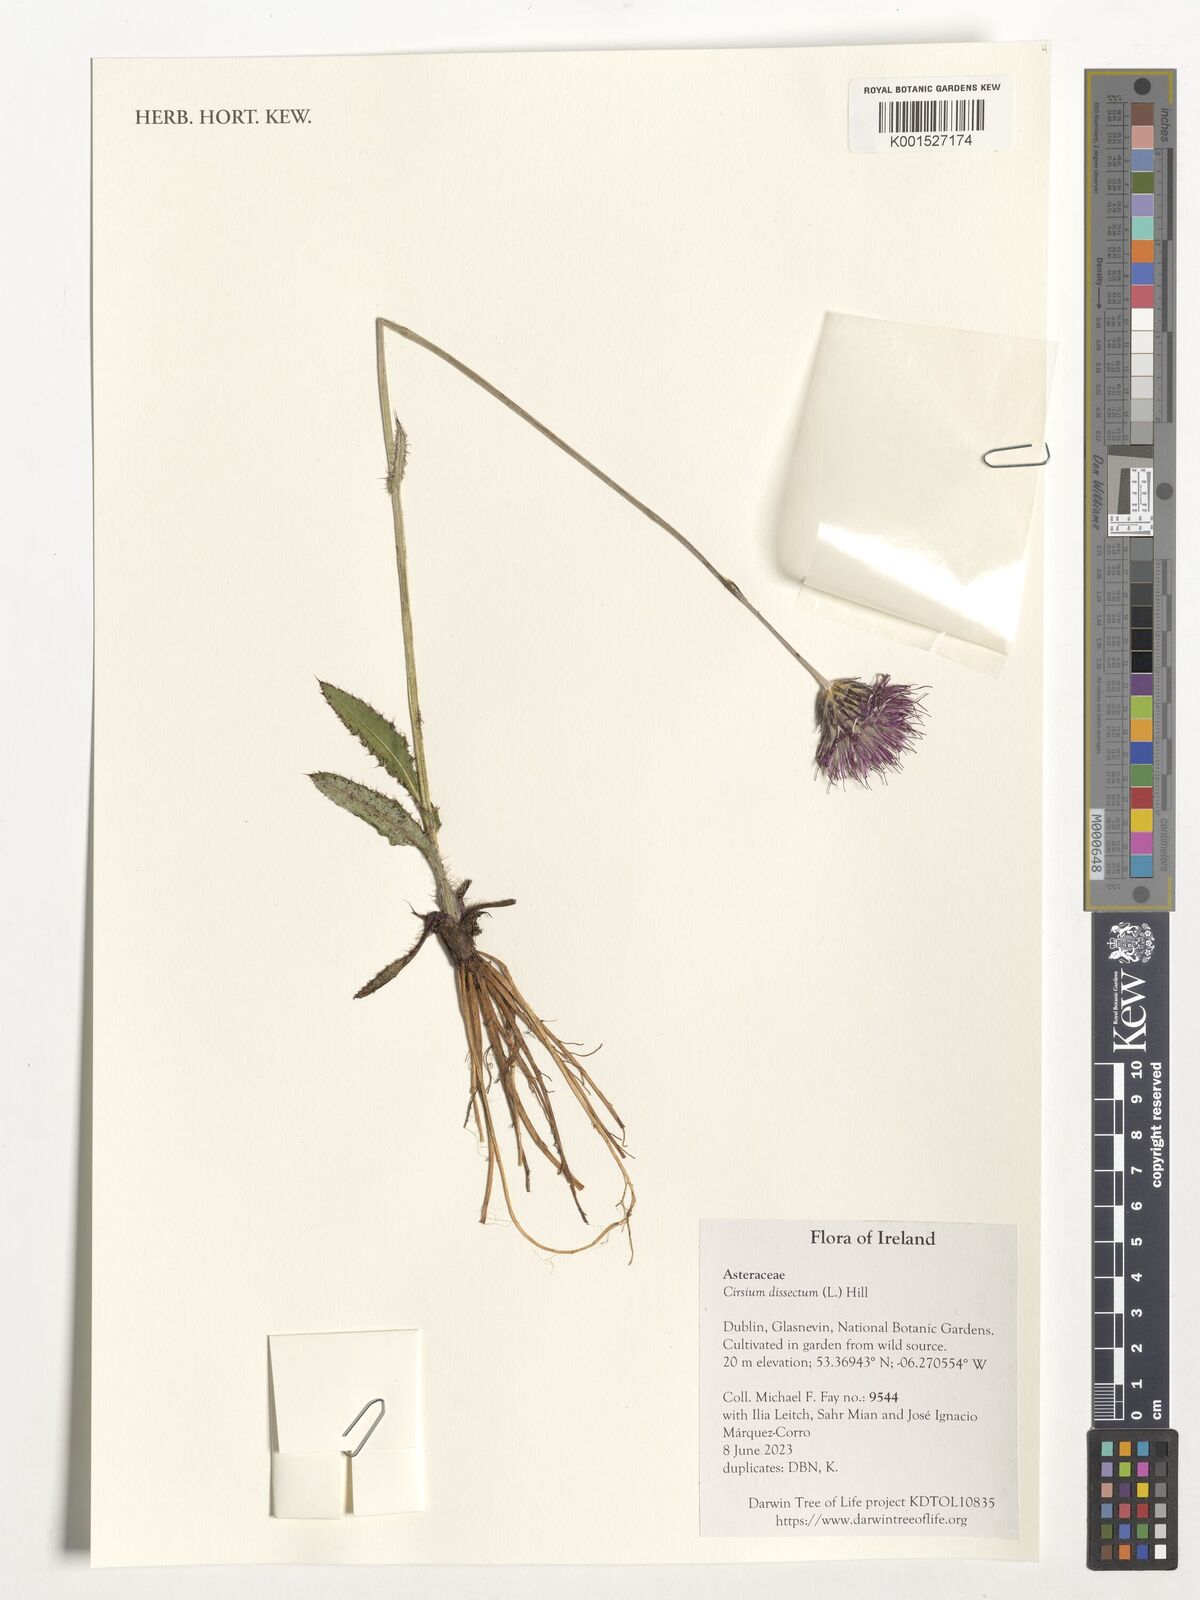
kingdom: Plantae
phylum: Tracheophyta
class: Magnoliopsida
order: Asterales
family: Asteraceae
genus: Cirsium
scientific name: Cirsium dissectum
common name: Meadow thistle
